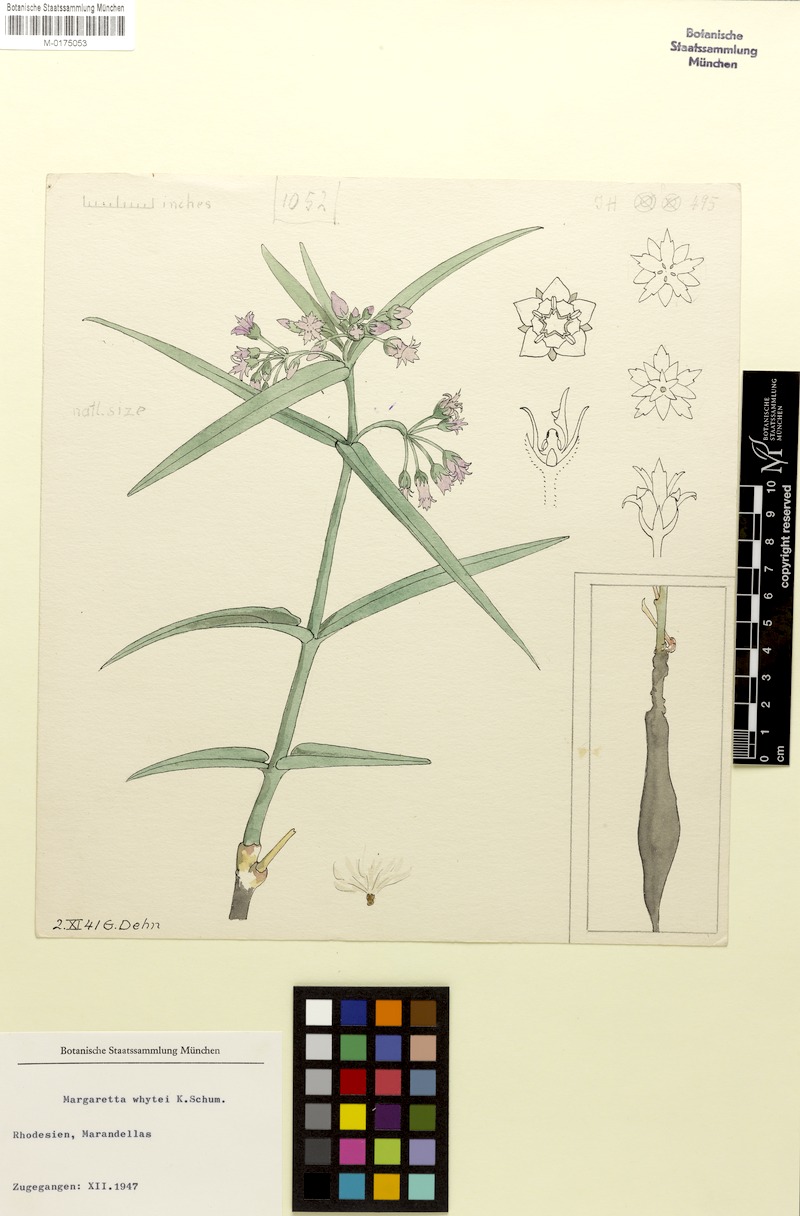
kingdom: Plantae
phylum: Tracheophyta
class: Magnoliopsida
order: Gentianales
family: Apocynaceae
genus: Margaretta
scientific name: Margaretta rosea
